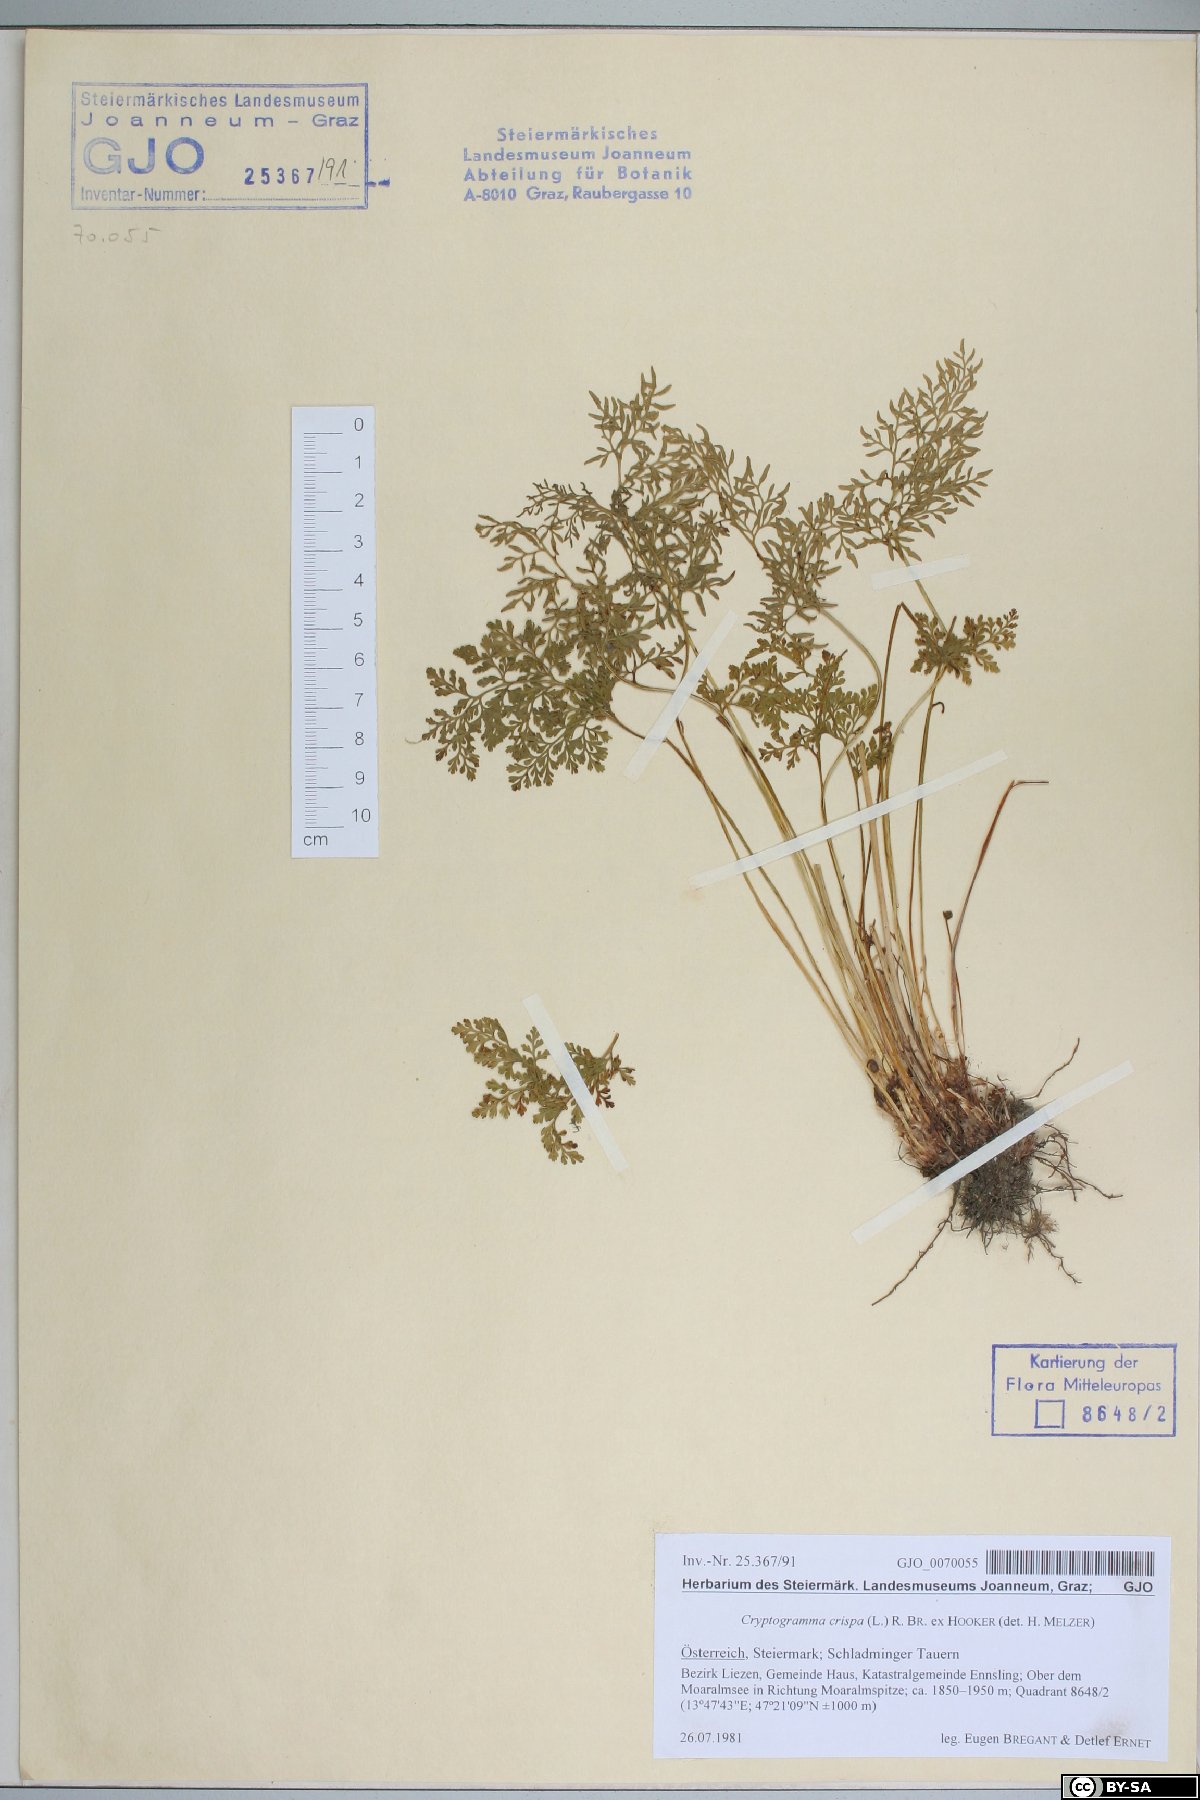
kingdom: Plantae
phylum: Tracheophyta
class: Polypodiopsida
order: Polypodiales
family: Pteridaceae
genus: Cryptogramma
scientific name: Cryptogramma crispa
